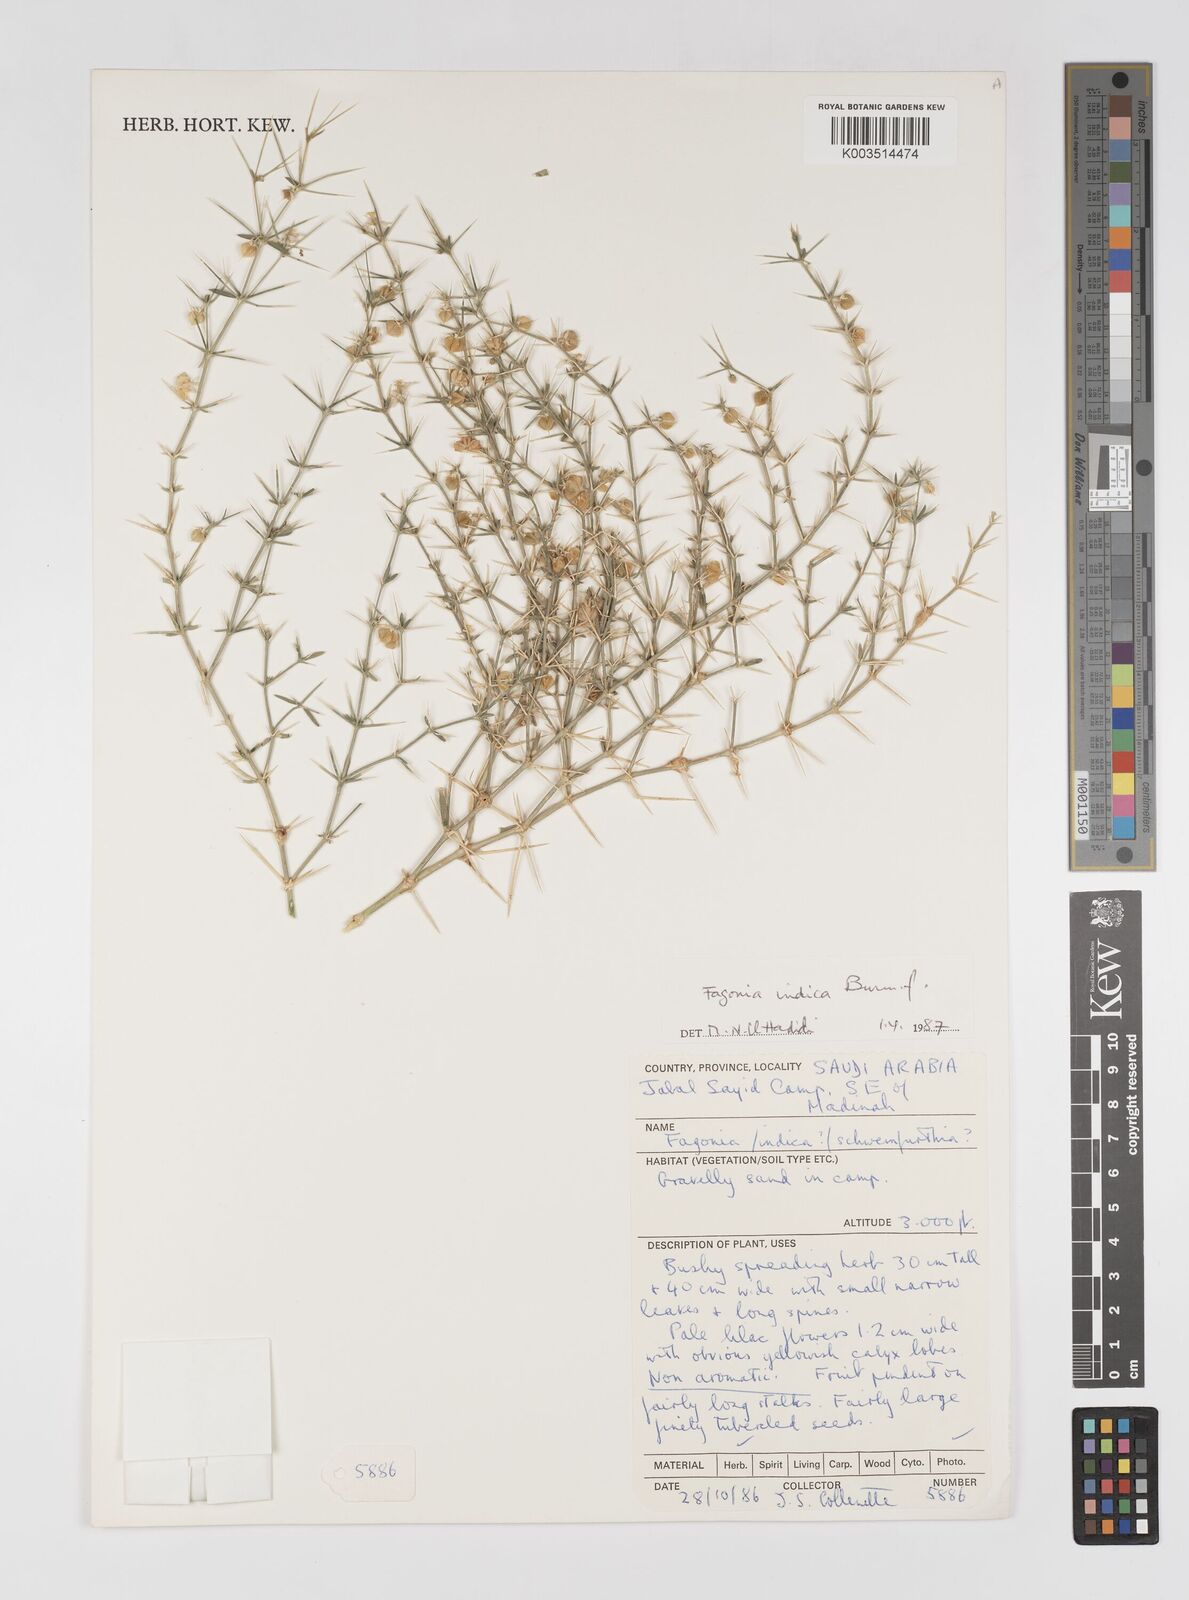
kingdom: Plantae
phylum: Tracheophyta
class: Magnoliopsida
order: Zygophyllales
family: Zygophyllaceae
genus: Fagonia
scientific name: Fagonia indica
